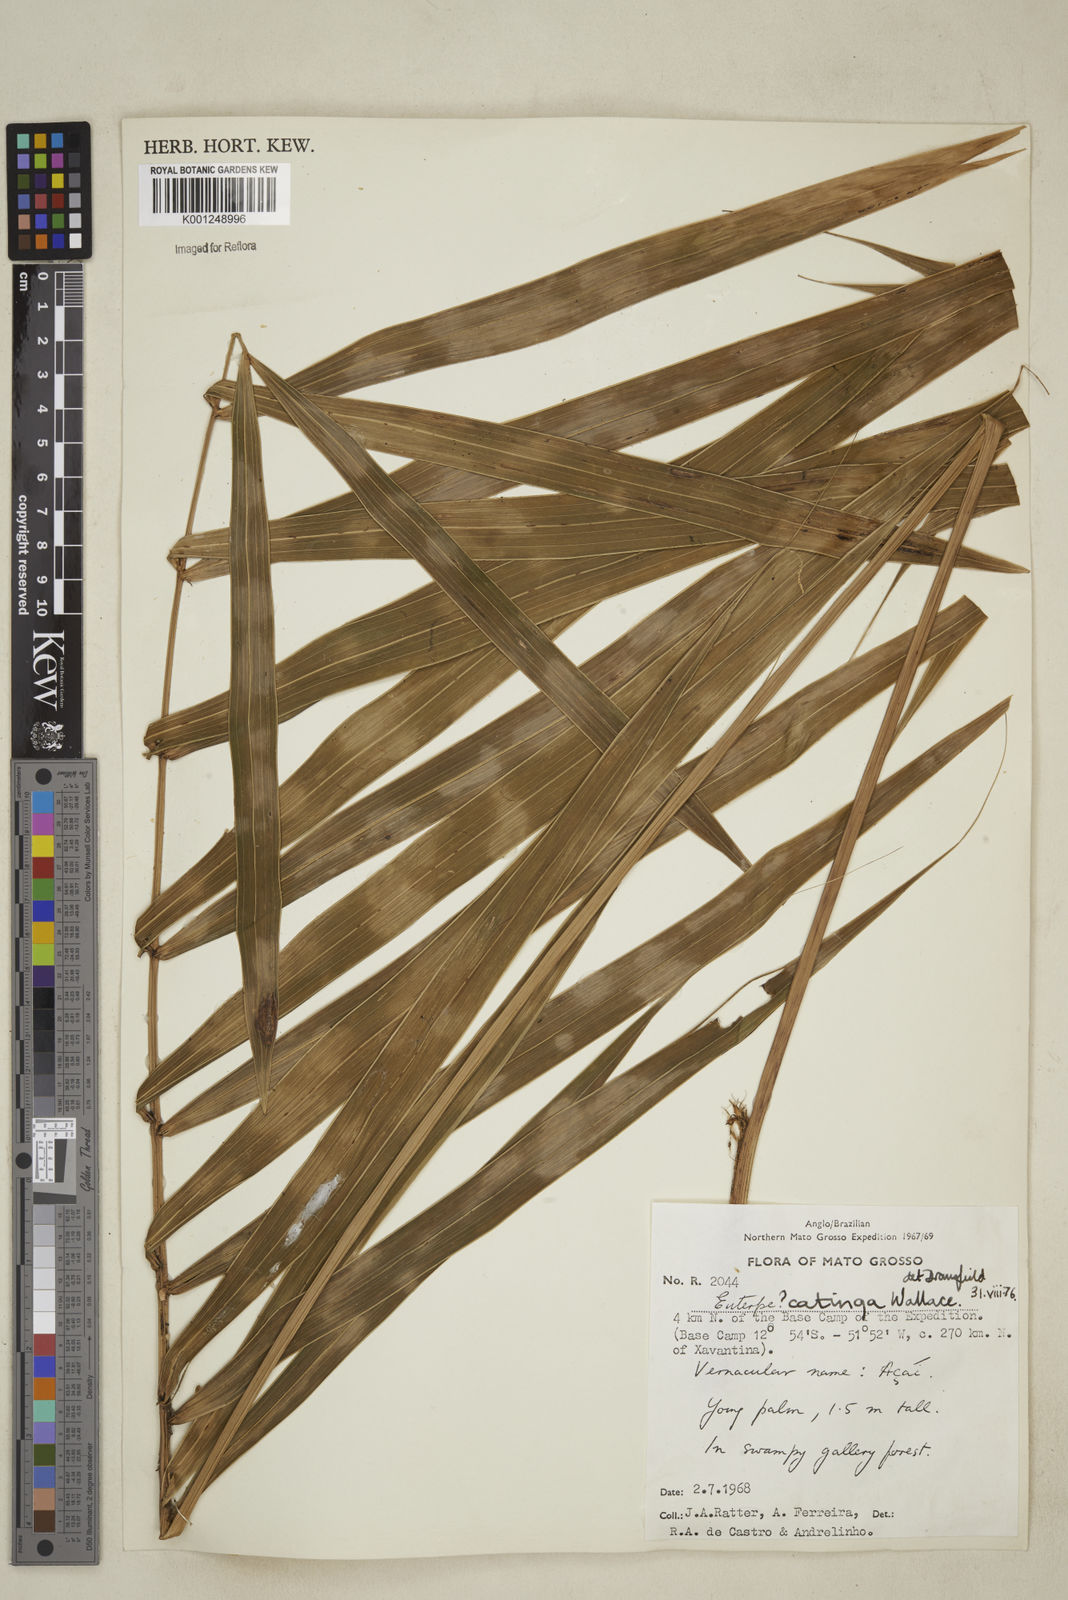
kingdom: Plantae
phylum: Tracheophyta
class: Liliopsida
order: Arecales
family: Arecaceae
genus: Euterpe
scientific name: Euterpe catinga
